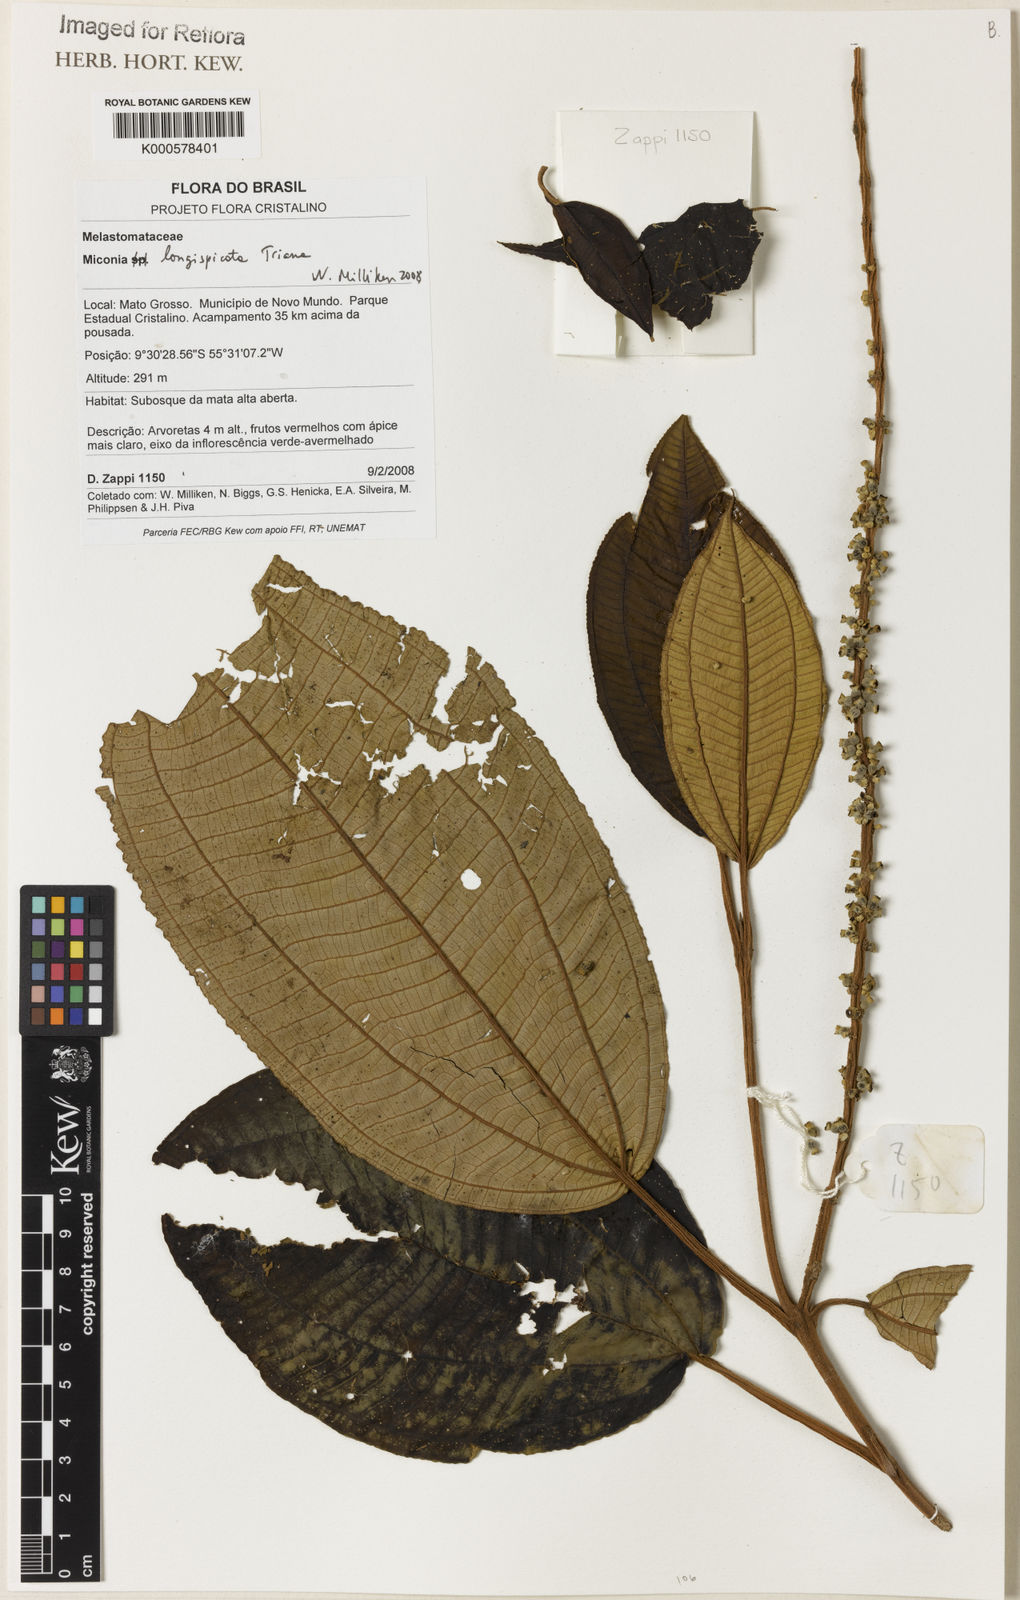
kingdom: Plantae
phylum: Tracheophyta
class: Magnoliopsida
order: Myrtales
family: Melastomataceae
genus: Miconia
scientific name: Miconia longispicata
